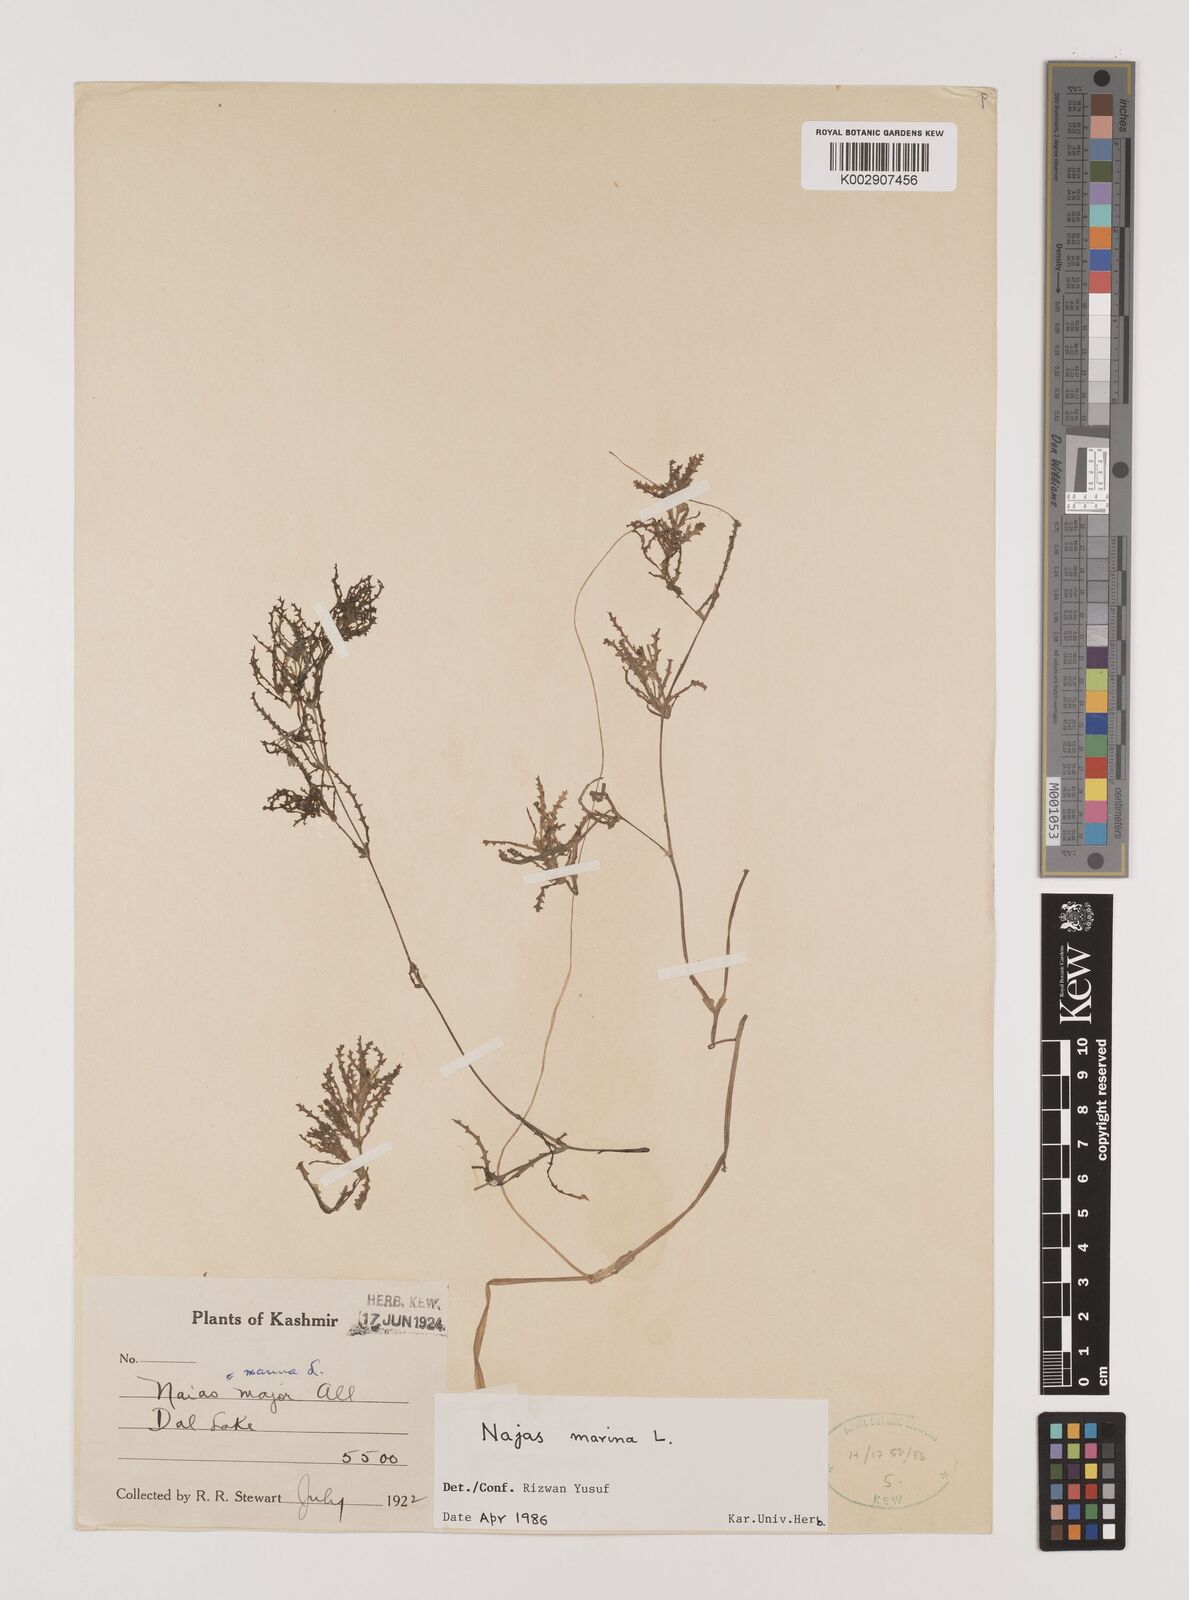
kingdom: Plantae
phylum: Tracheophyta
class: Liliopsida
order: Alismatales
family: Hydrocharitaceae
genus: Najas
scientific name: Najas marina
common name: Holly-leaved naiad
